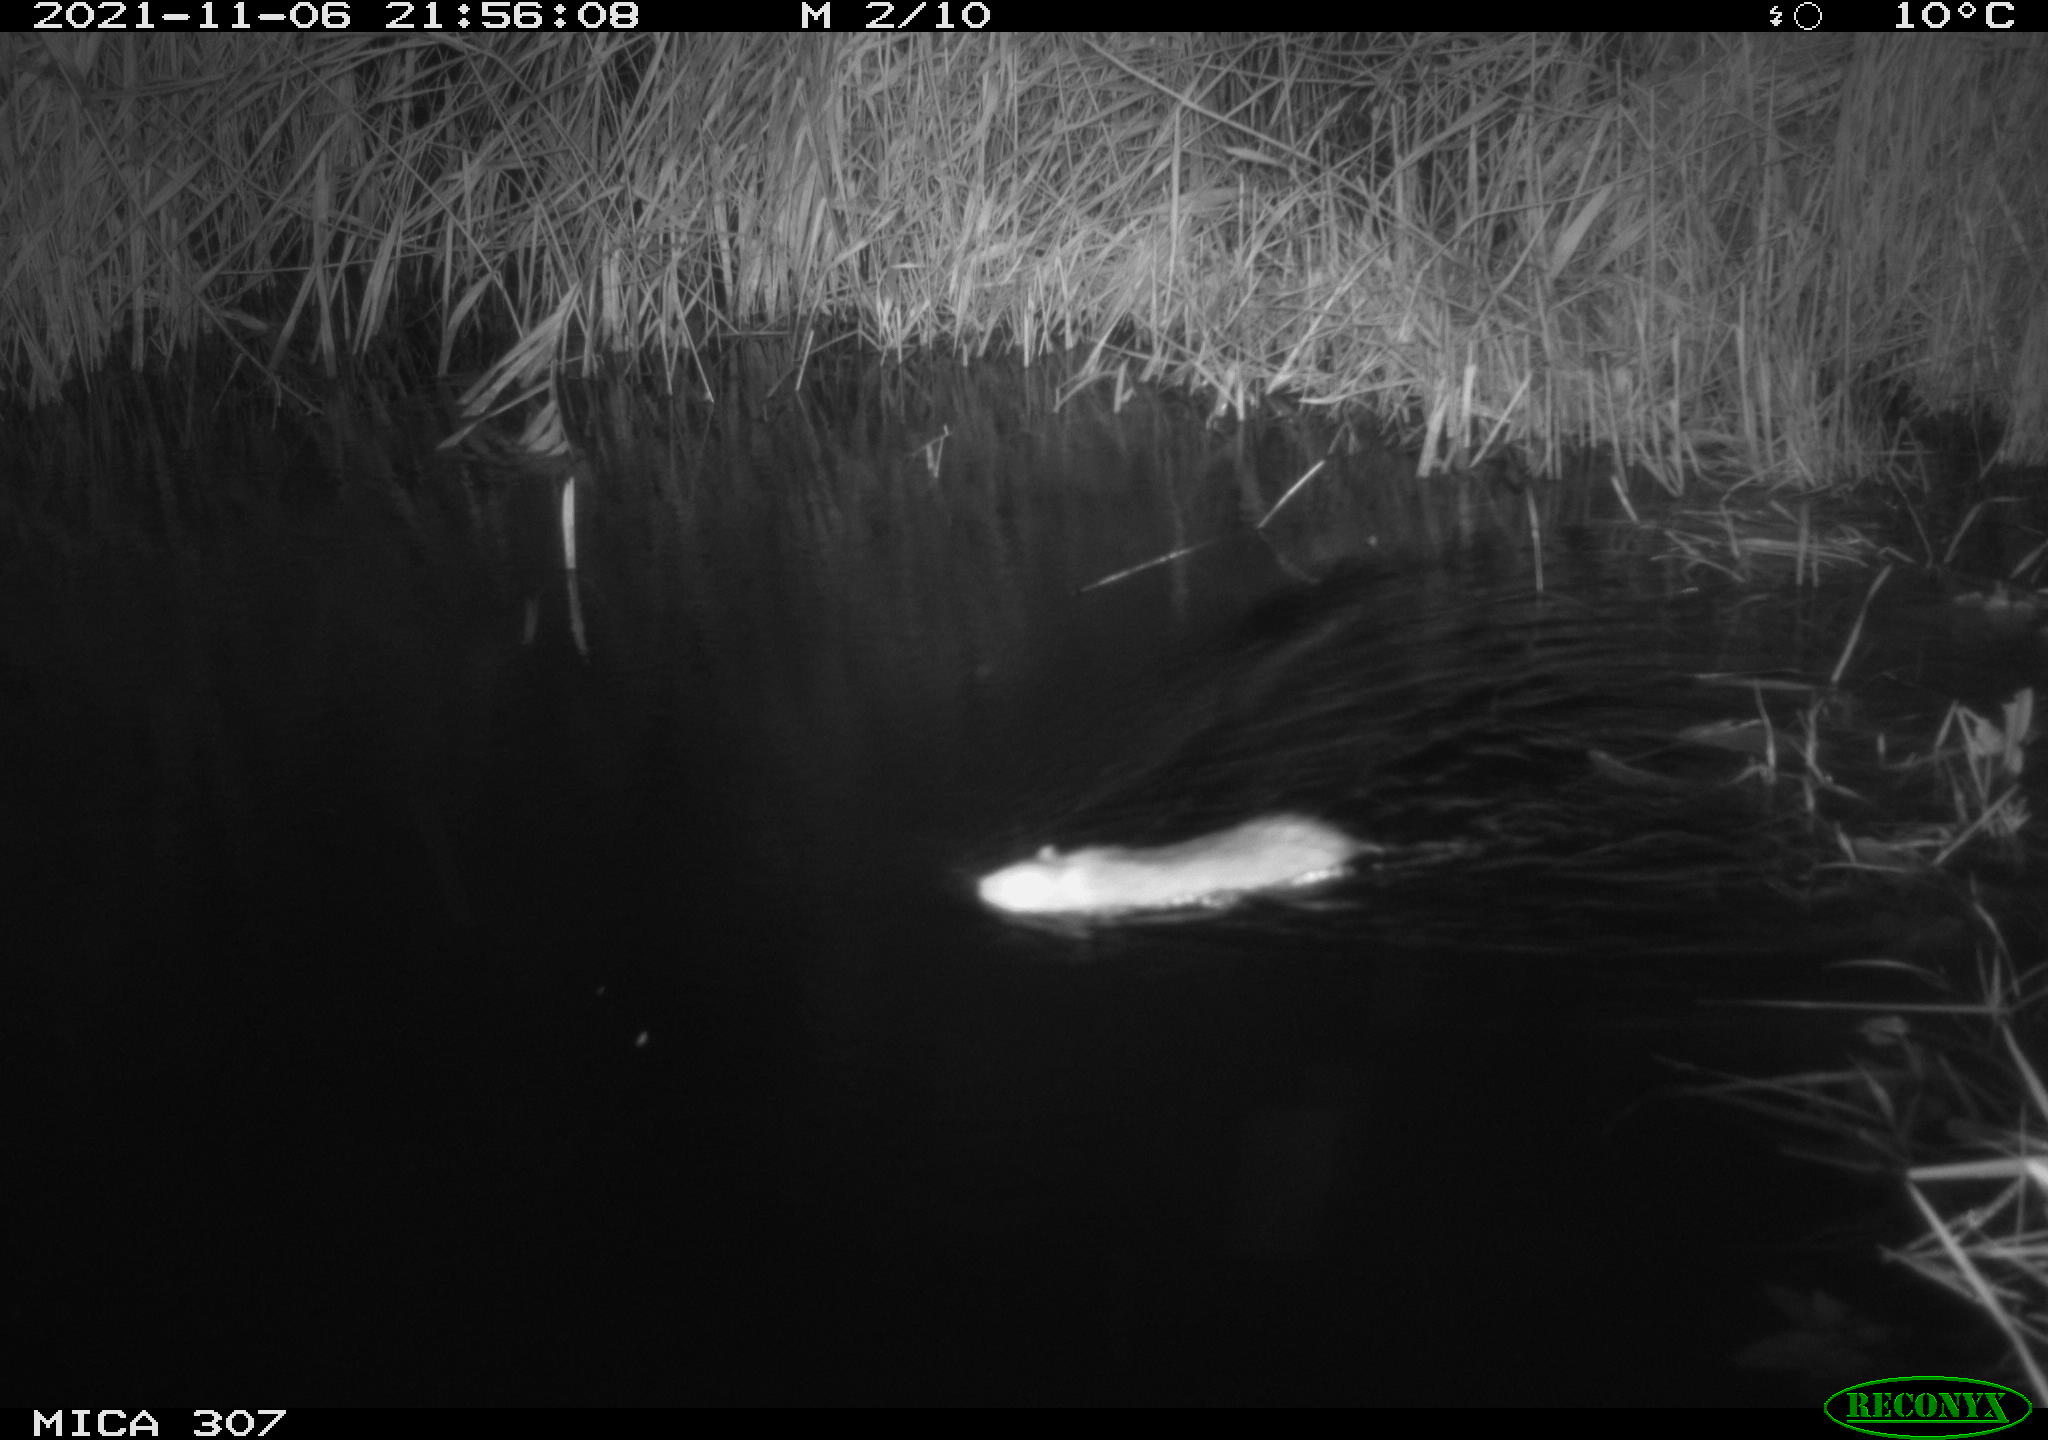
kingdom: Animalia
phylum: Chordata
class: Mammalia
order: Rodentia
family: Muridae
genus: Rattus
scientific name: Rattus norvegicus
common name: Brown rat
